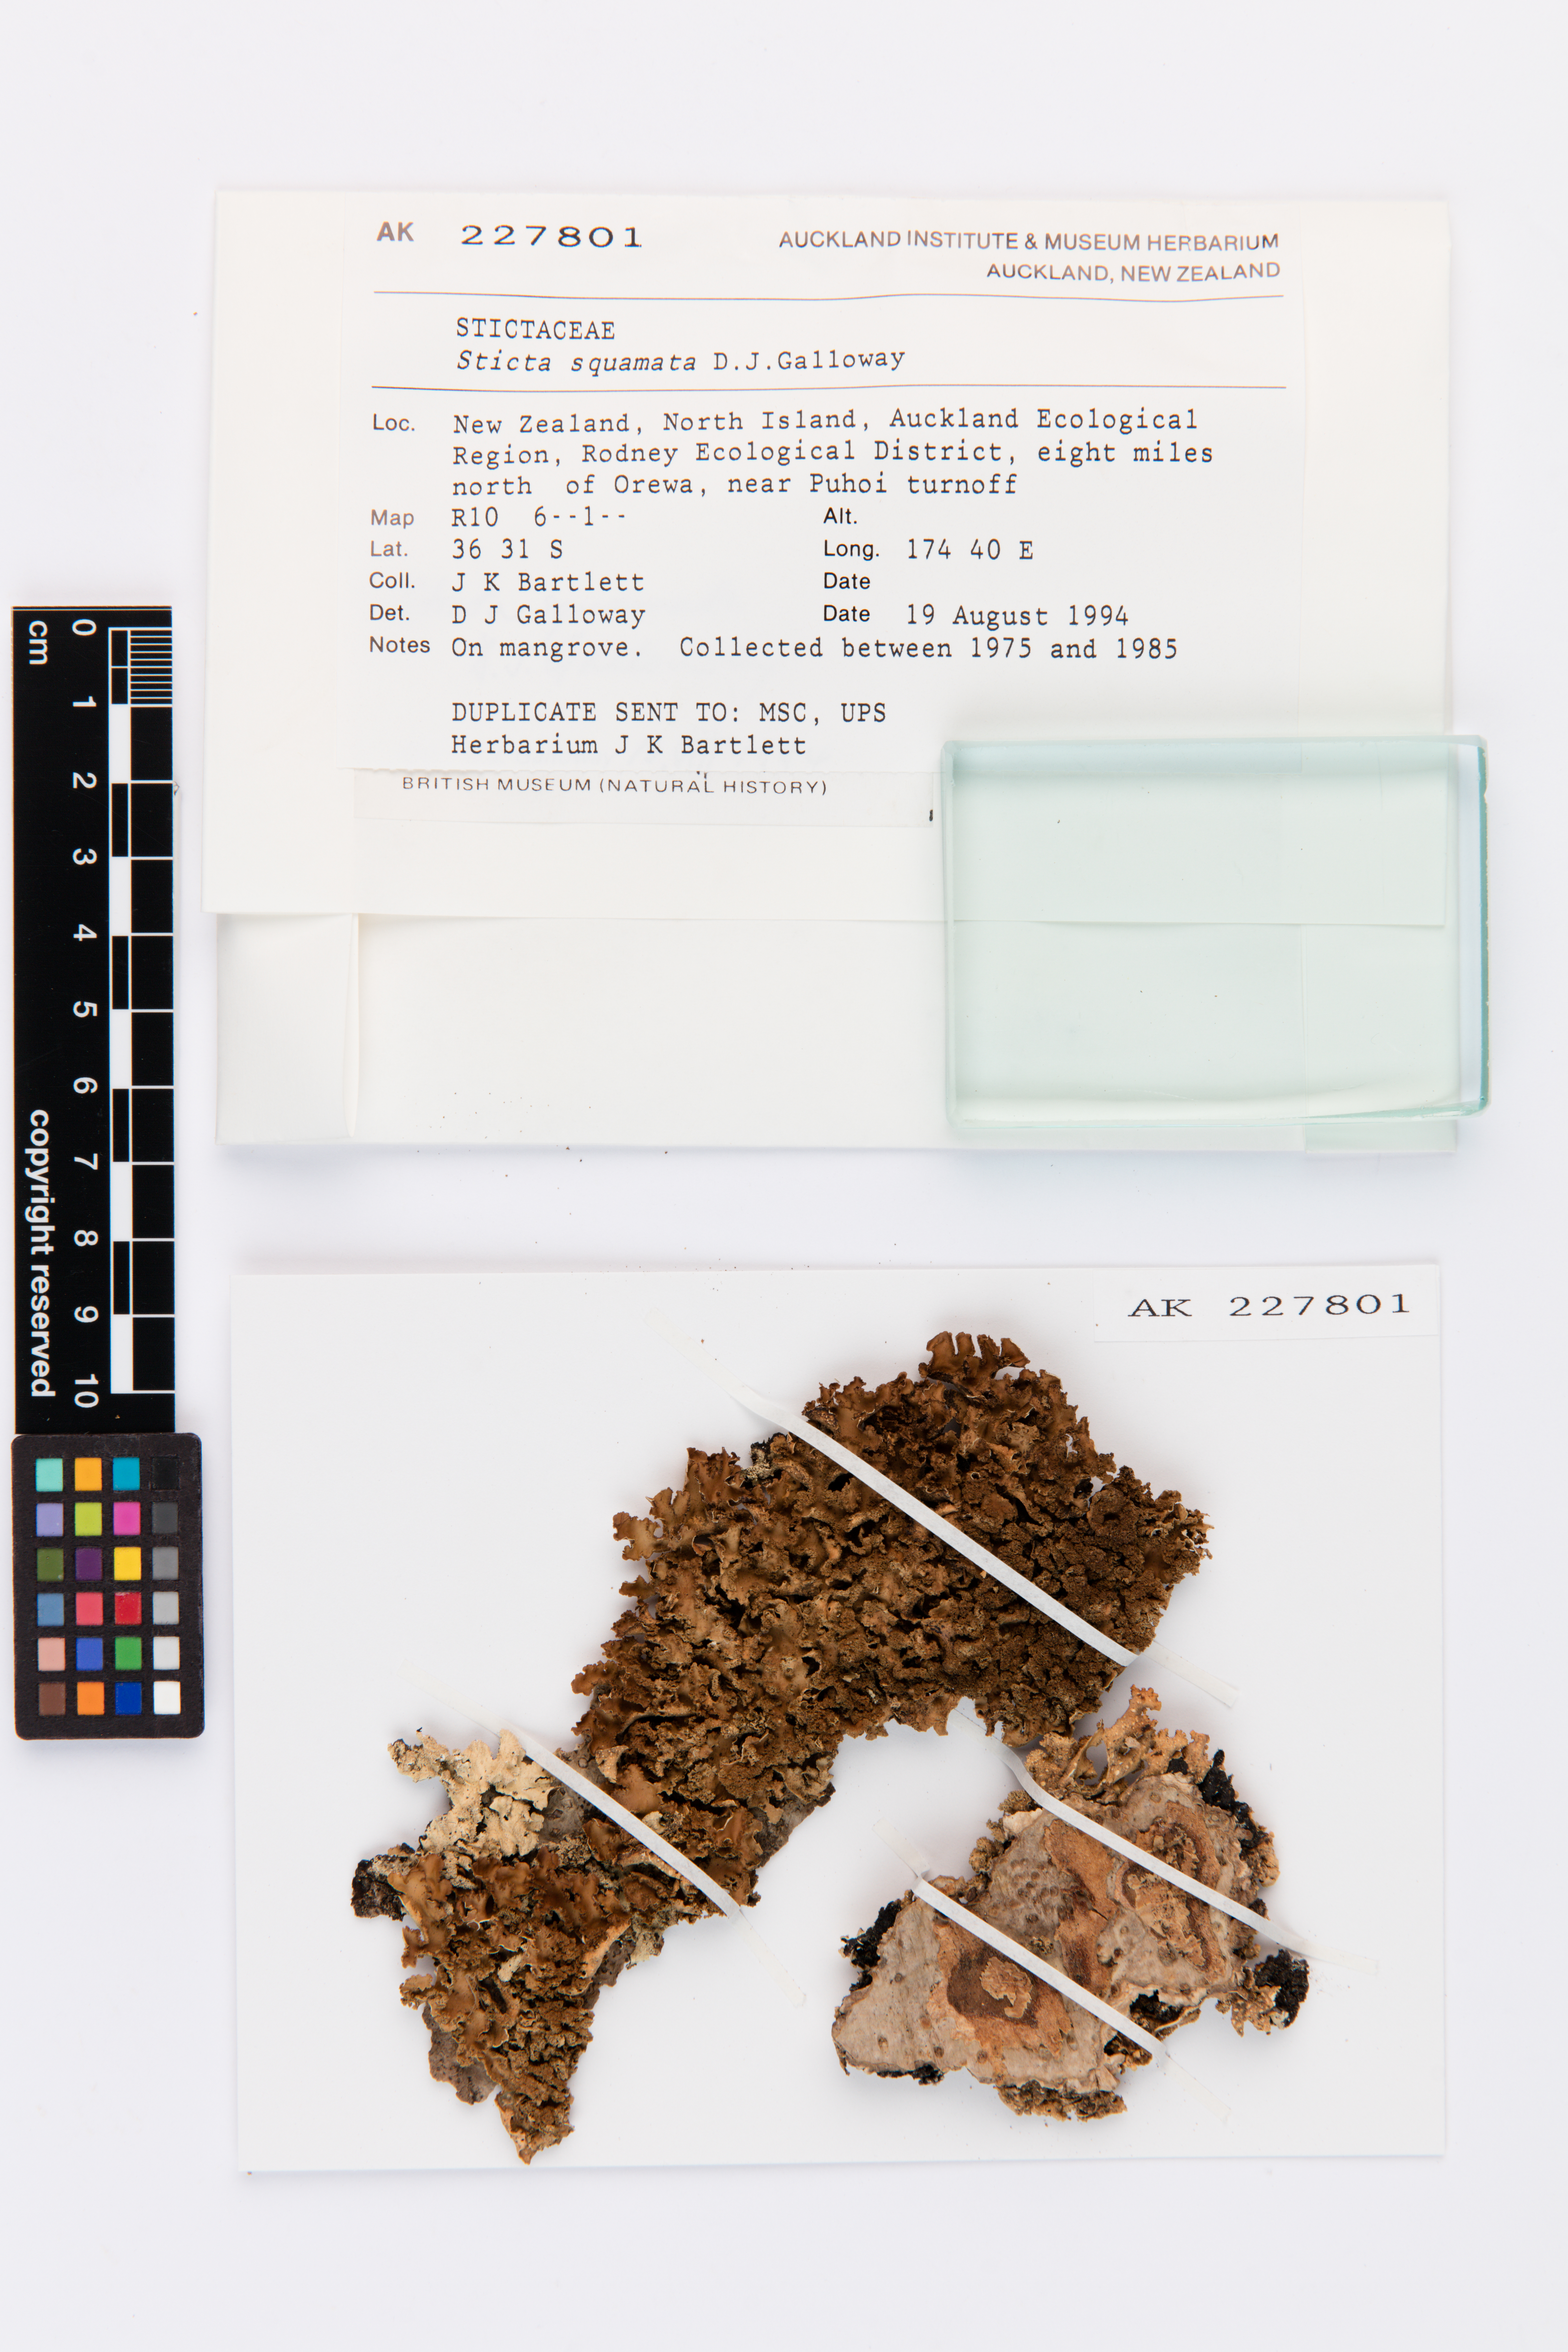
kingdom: Fungi
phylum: Ascomycota
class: Lecanoromycetes
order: Peltigerales
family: Lobariaceae
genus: Sticta
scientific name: Sticta squamata
